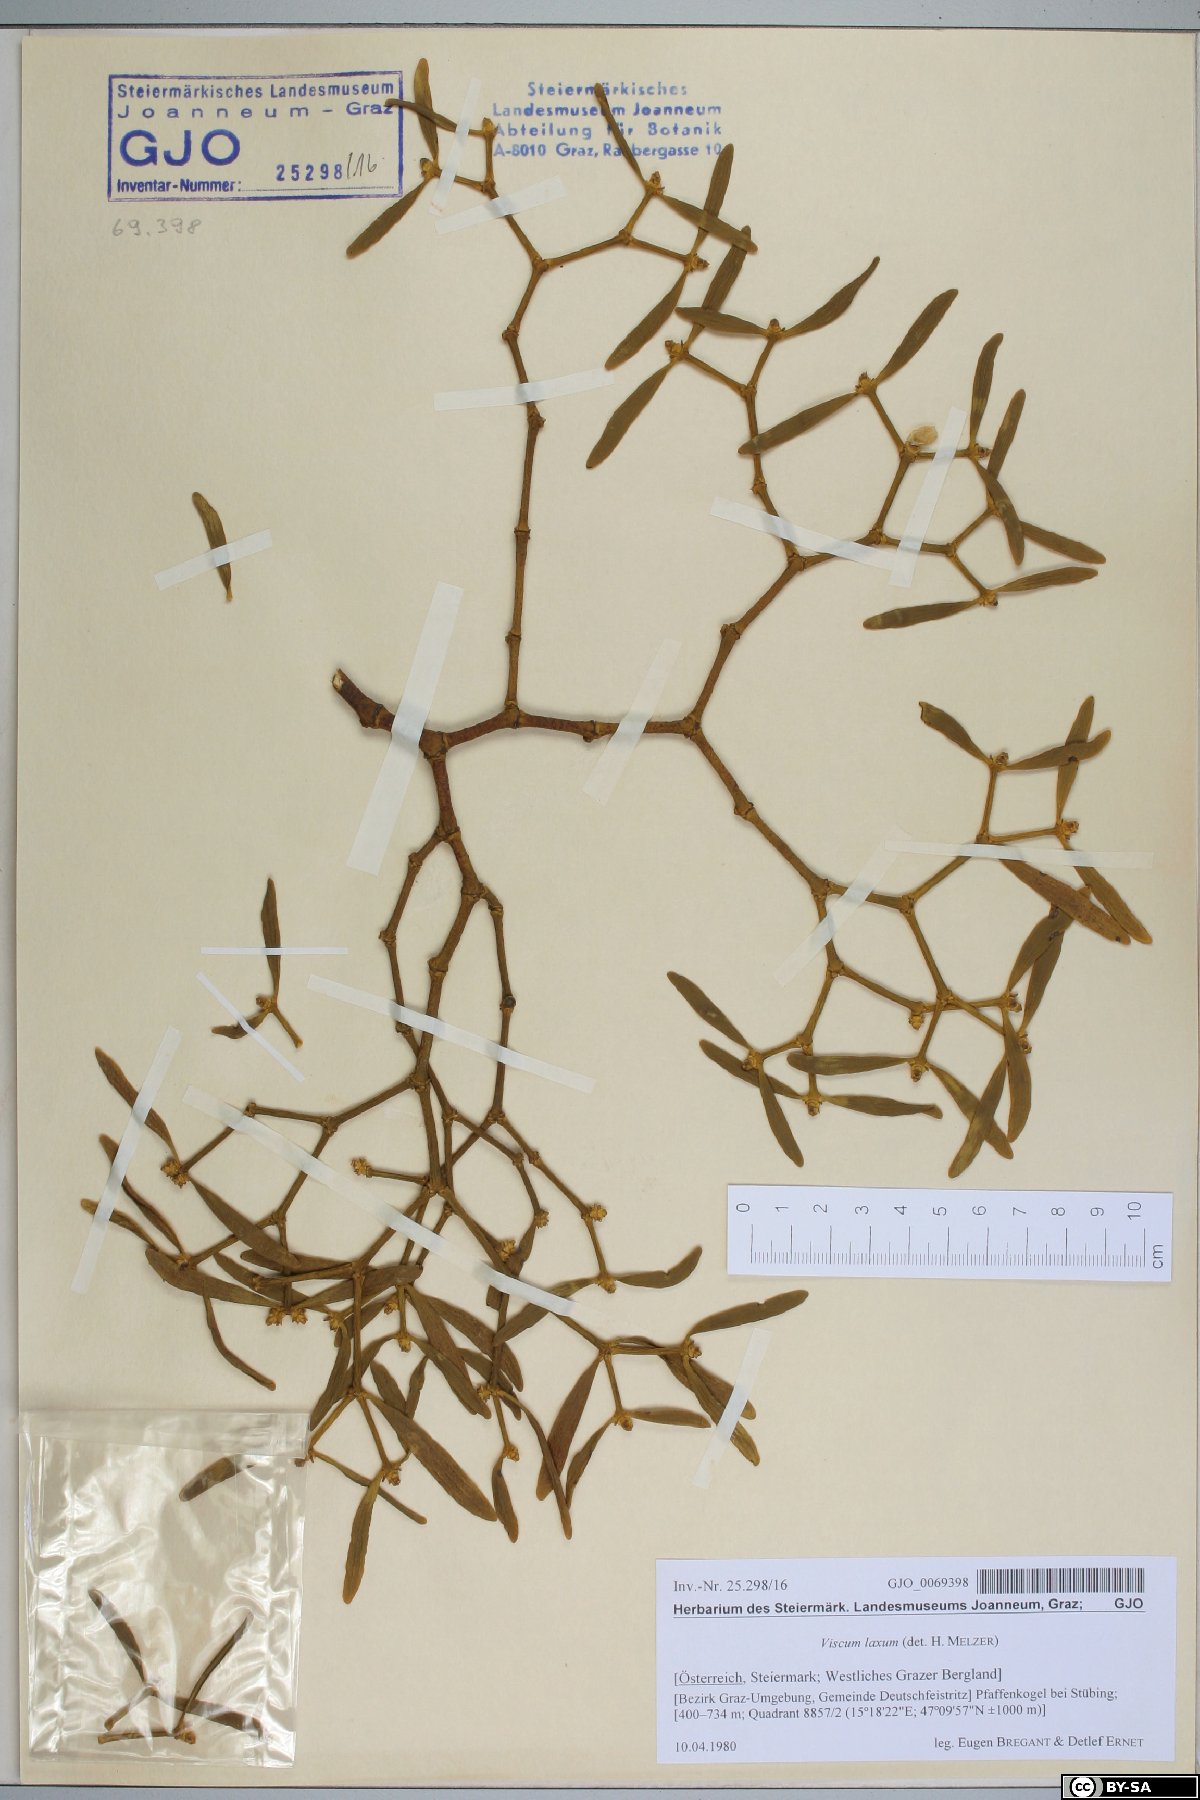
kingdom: Plantae
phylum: Tracheophyta
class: Magnoliopsida
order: Santalales
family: Viscaceae
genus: Viscum
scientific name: Viscum laxum
